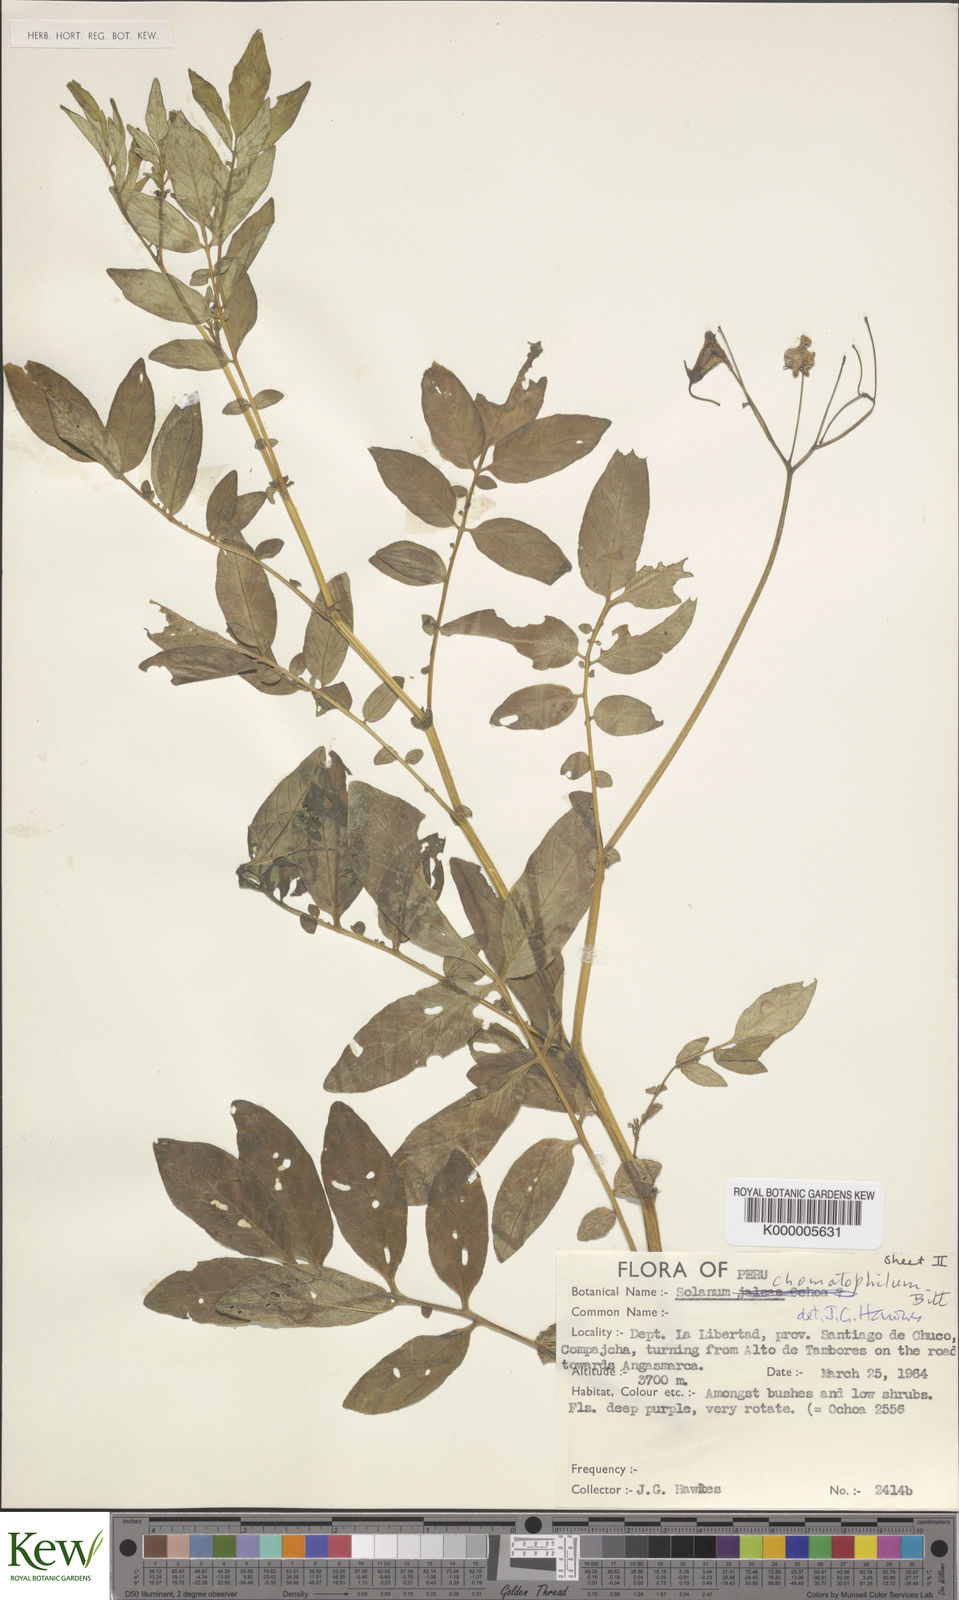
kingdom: Plantae
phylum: Tracheophyta
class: Magnoliopsida
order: Solanales
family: Solanaceae
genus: Solanum
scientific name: Solanum chomatophilum
